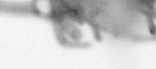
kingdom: Animalia
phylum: Annelida
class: Polychaeta
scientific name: Polychaeta
